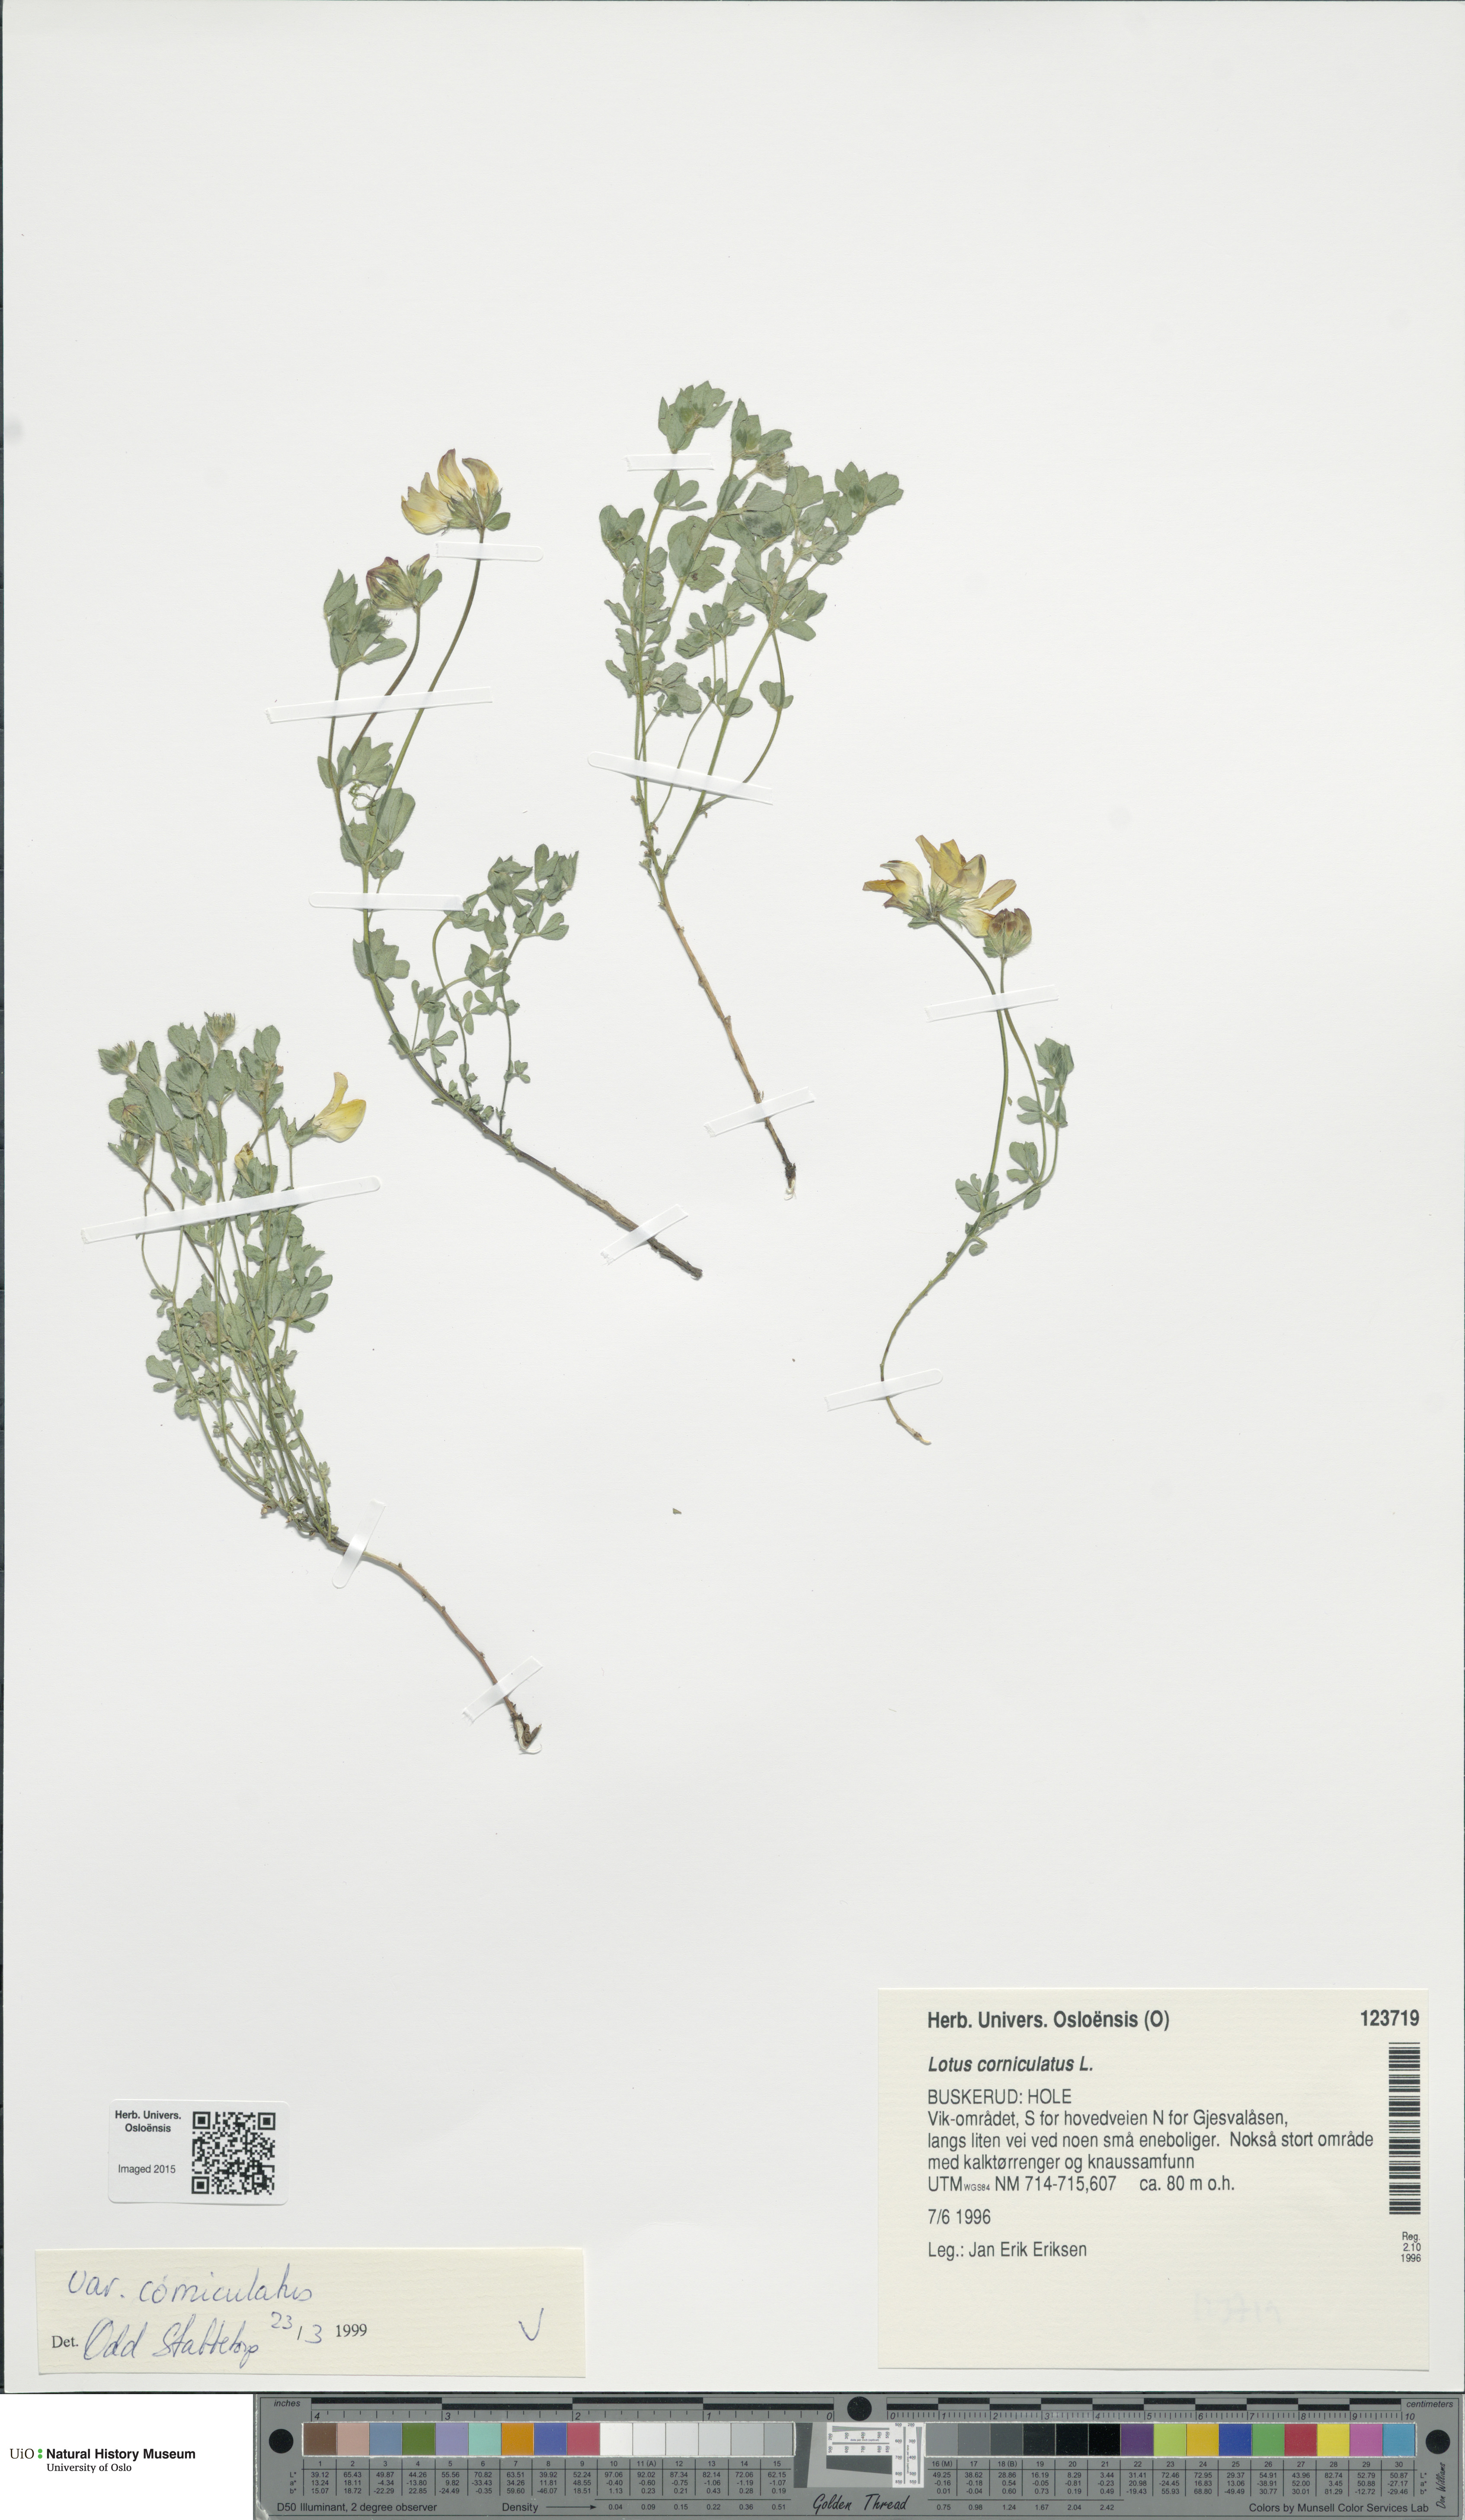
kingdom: Plantae
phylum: Tracheophyta
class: Magnoliopsida
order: Fabales
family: Fabaceae
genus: Lotus
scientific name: Lotus corniculatus
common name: Common bird's-foot-trefoil
